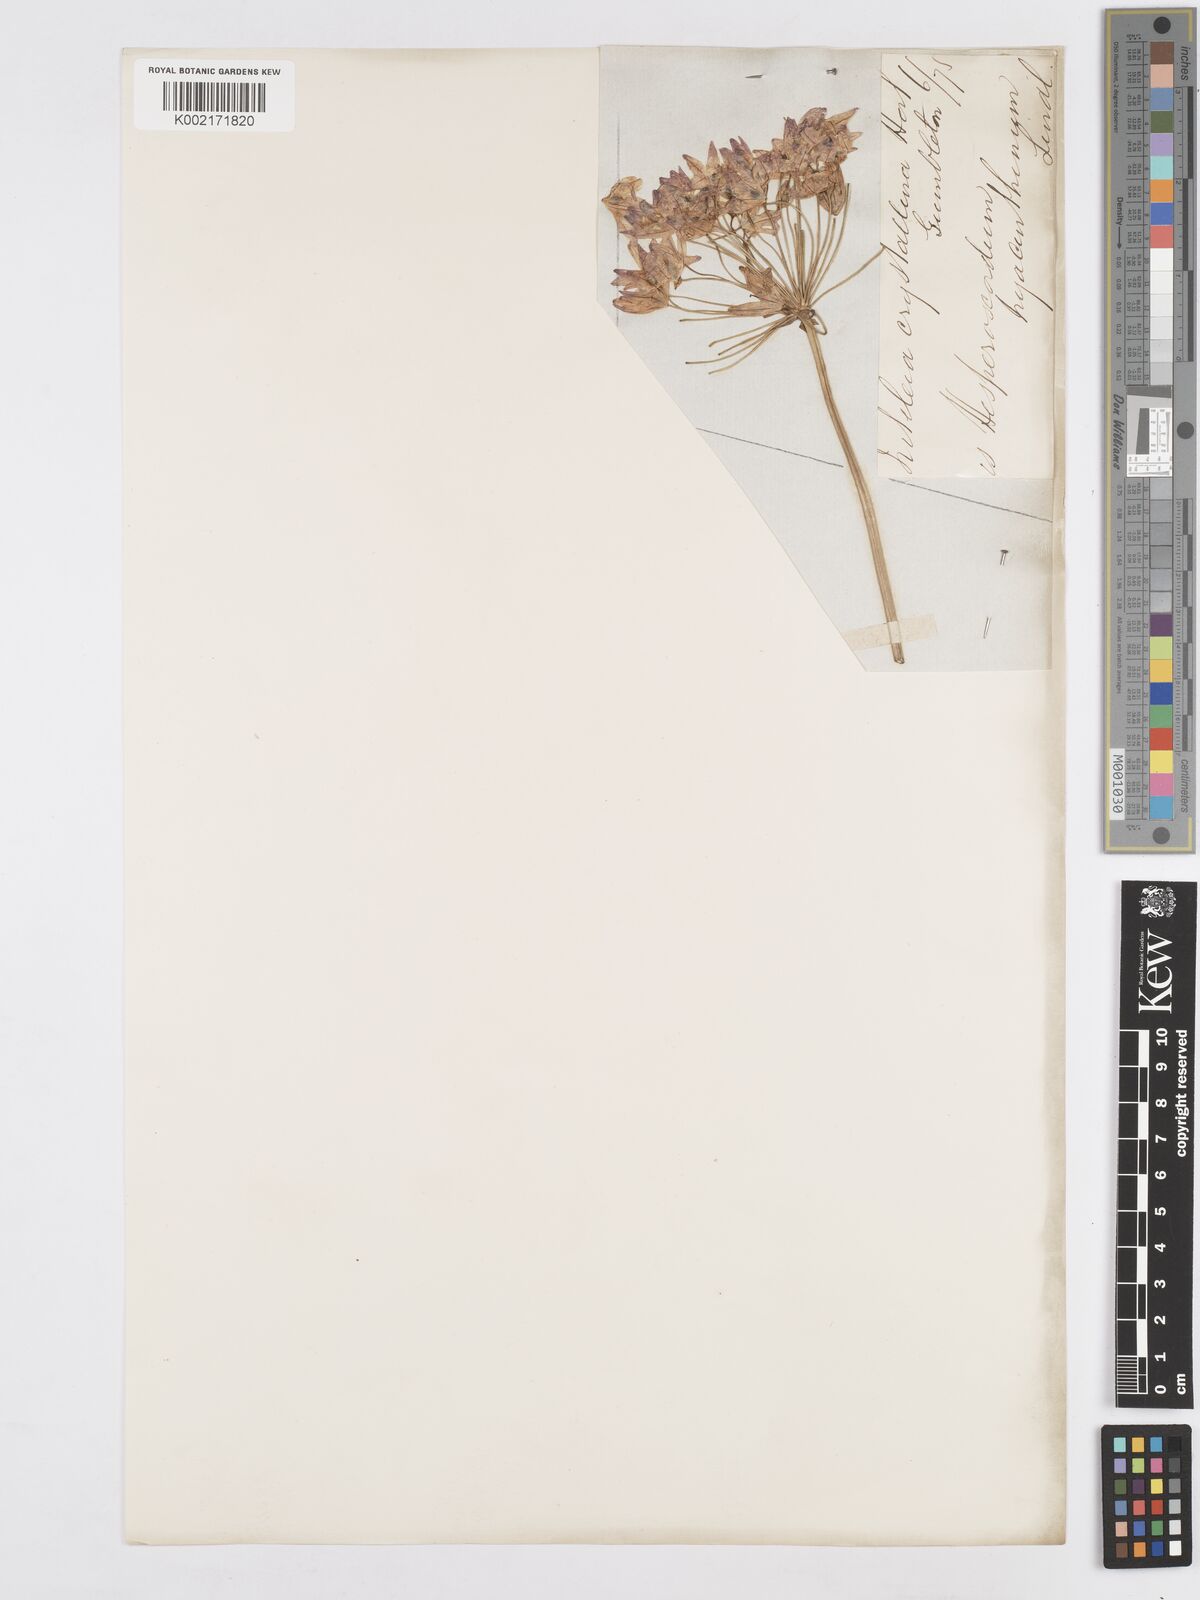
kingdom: Plantae
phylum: Tracheophyta
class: Liliopsida
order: Asparagales
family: Asparagaceae
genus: Triteleia
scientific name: Triteleia hyacinthina
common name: White brodiaea
